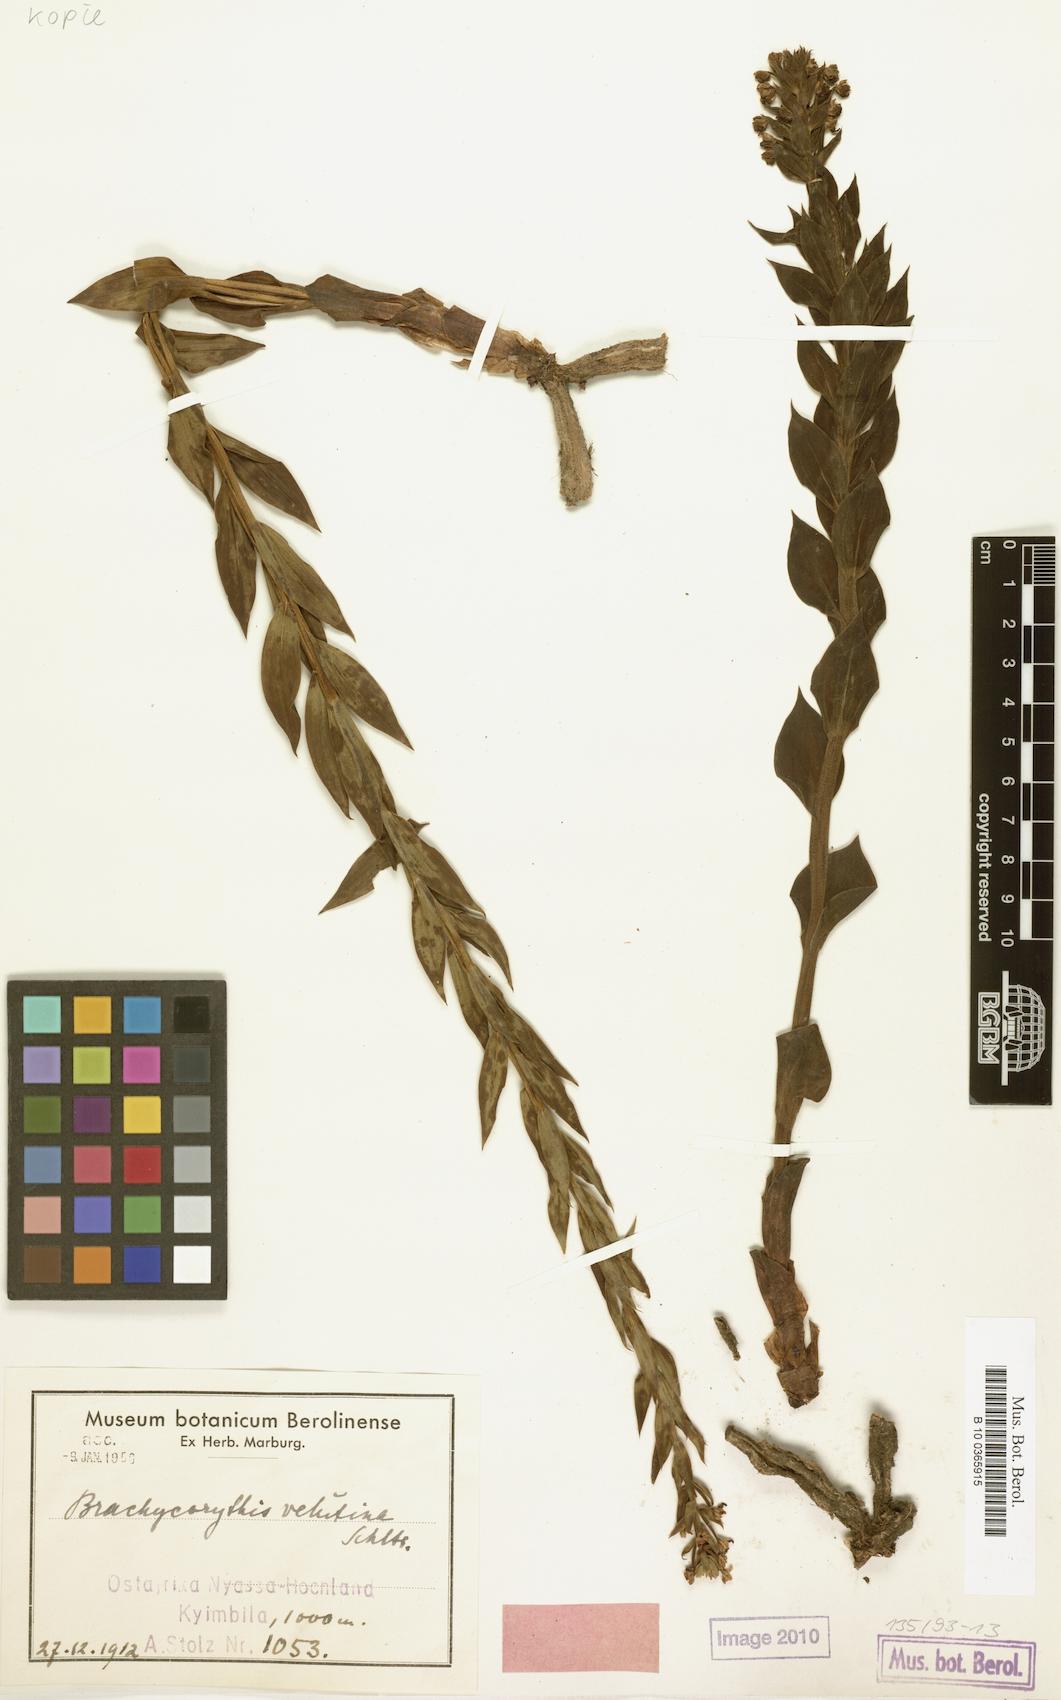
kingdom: Plantae
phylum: Tracheophyta
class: Liliopsida
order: Asparagales
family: Orchidaceae
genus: Brachycorythis
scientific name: Brachycorythis velutina
